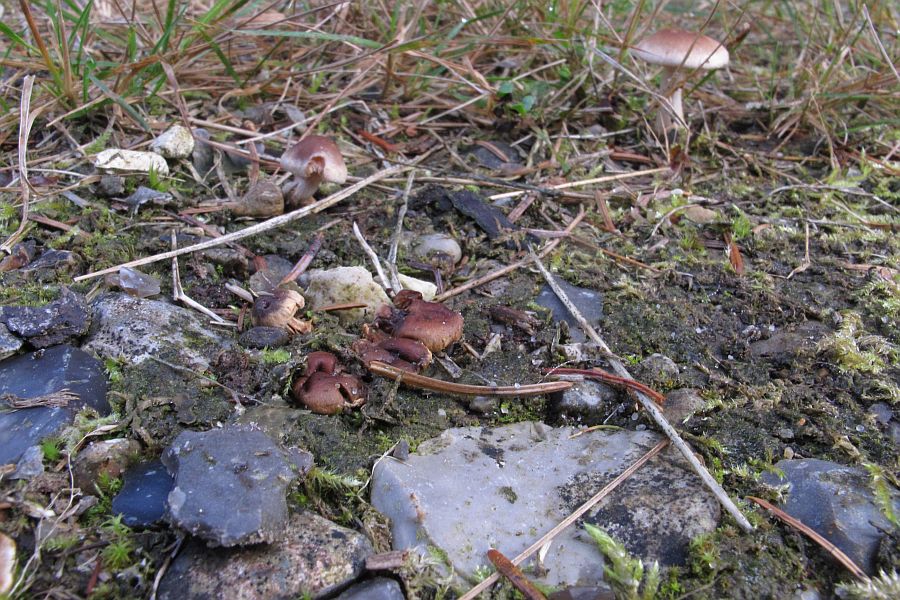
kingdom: Fungi
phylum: Basidiomycota
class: Agaricomycetes
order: Agaricales
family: Squamanitaceae
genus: Dissoderma
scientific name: Dissoderma odoratum
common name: vellugtende knoldfod
